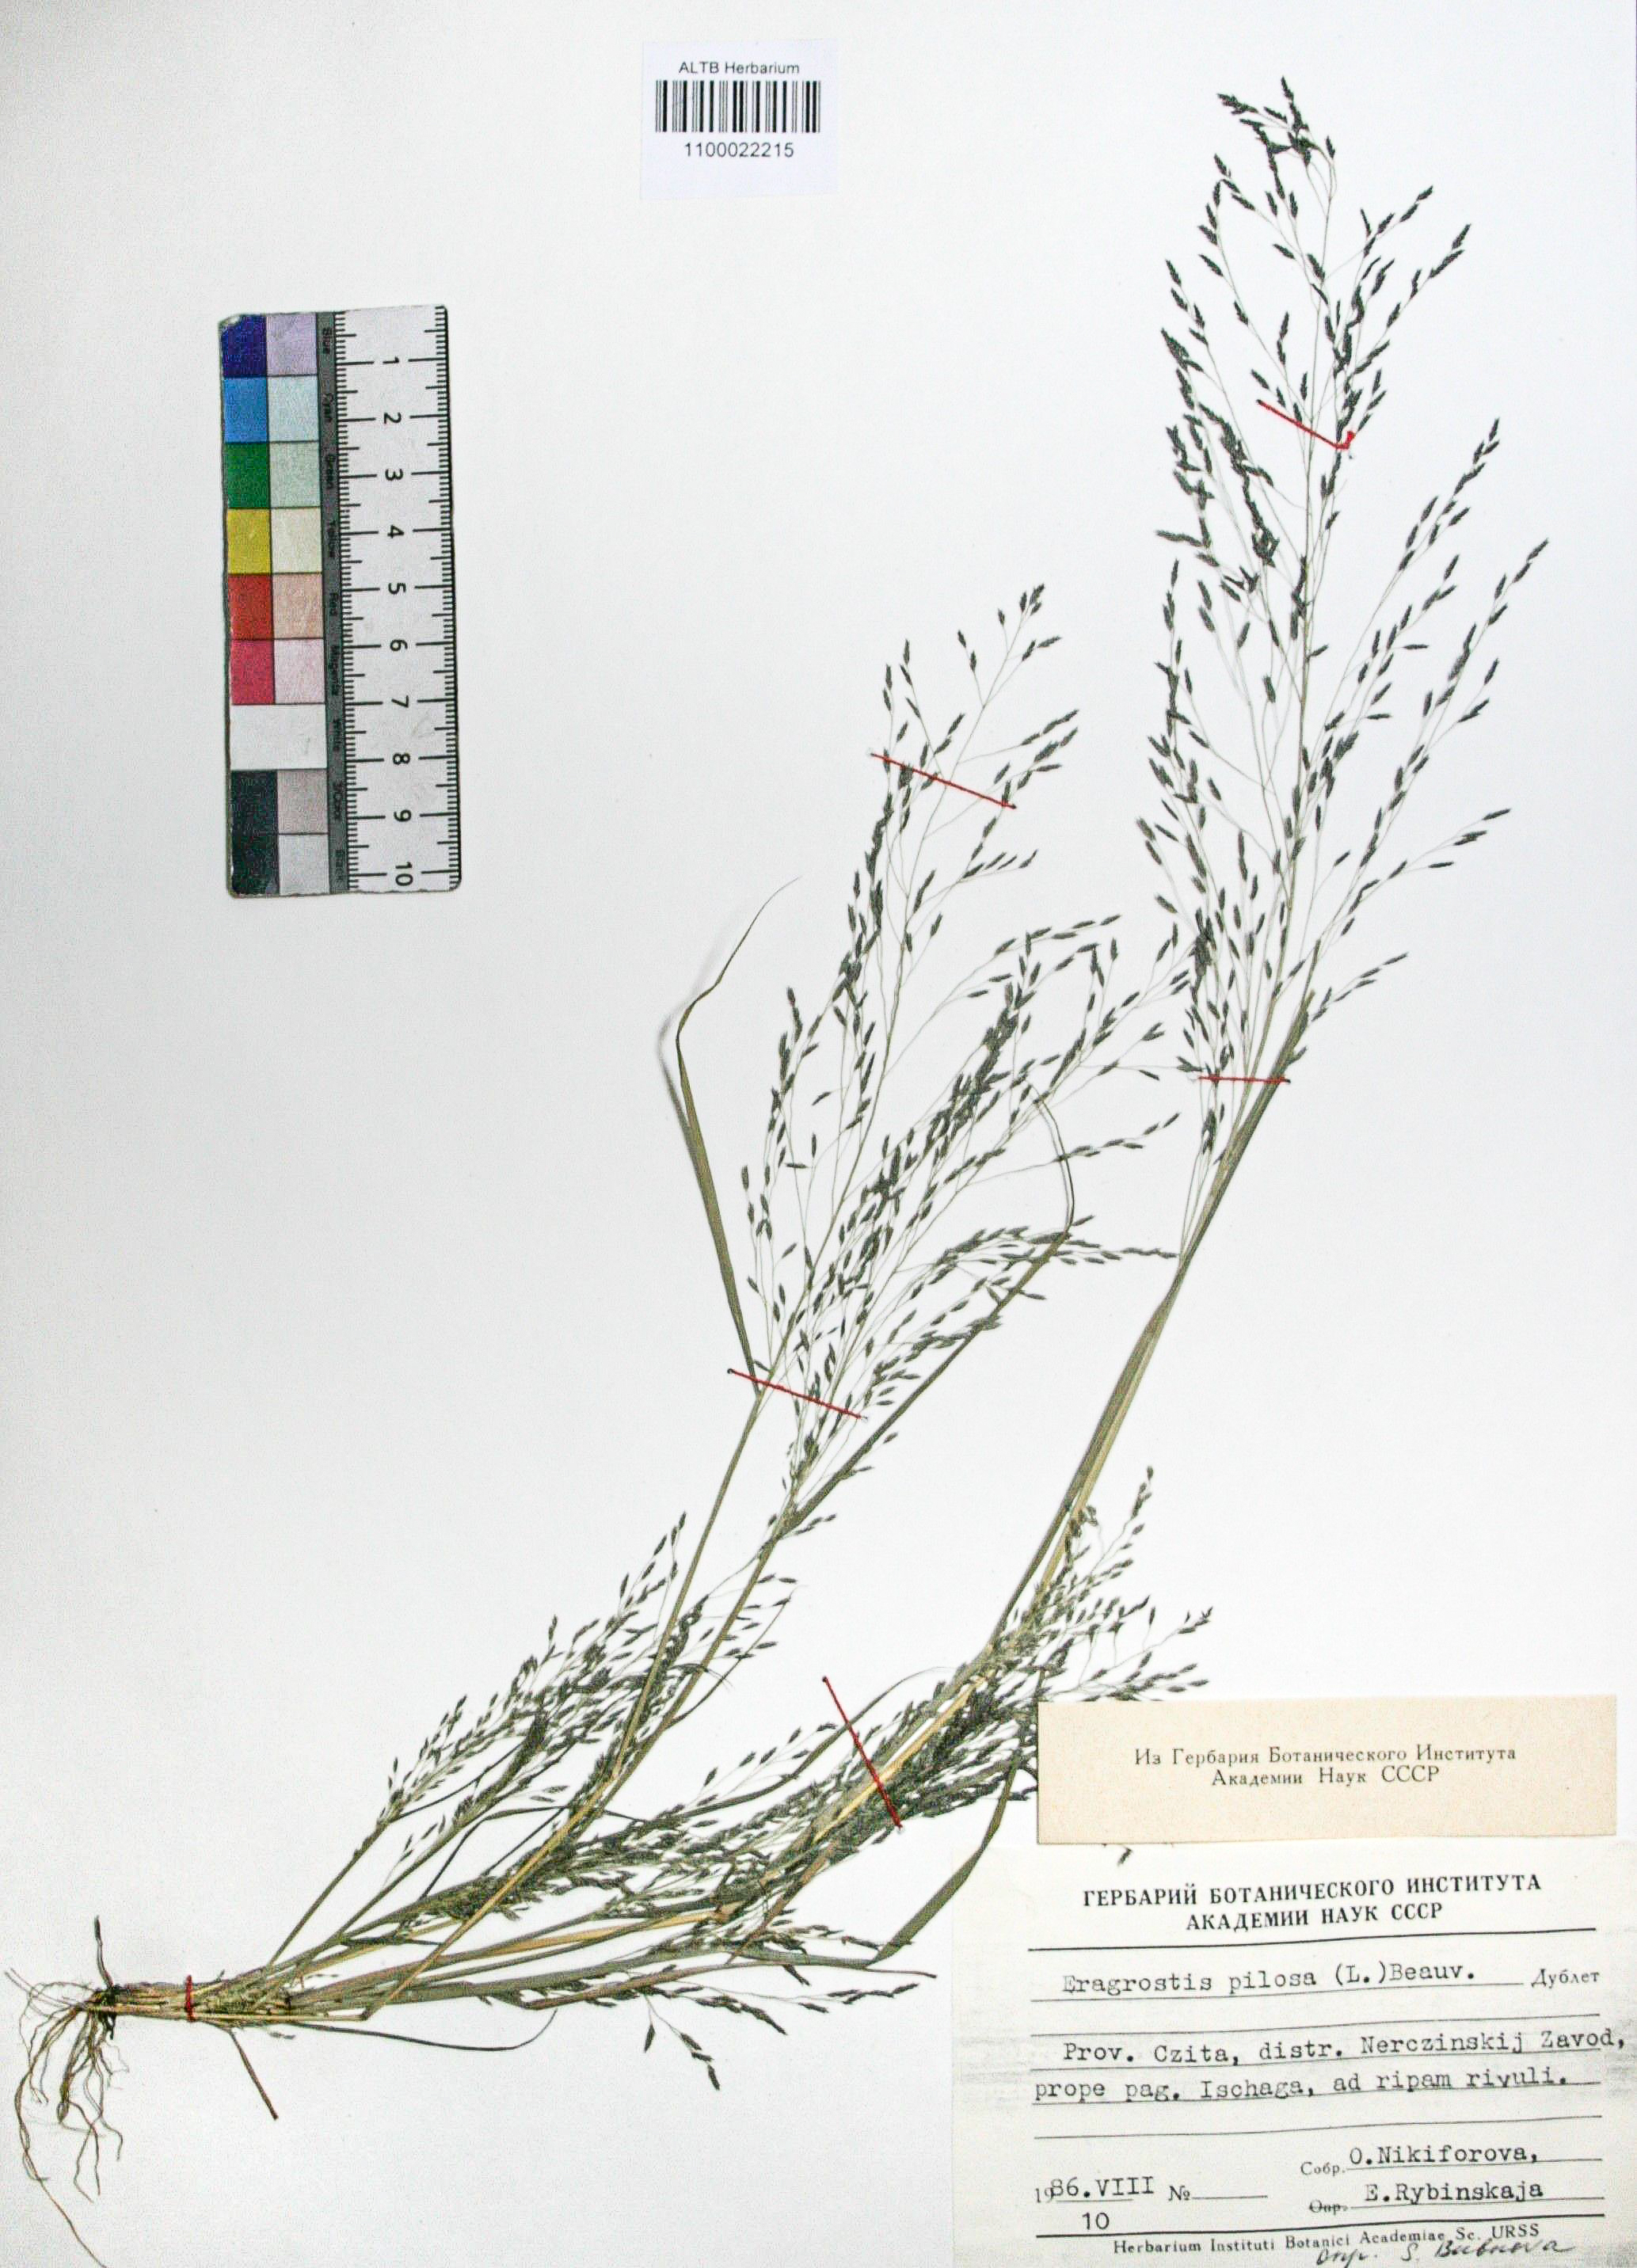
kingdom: Plantae
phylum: Tracheophyta
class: Liliopsida
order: Poales
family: Poaceae
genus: Eragrostis
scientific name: Eragrostis pilosa
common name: Indian lovegrass
